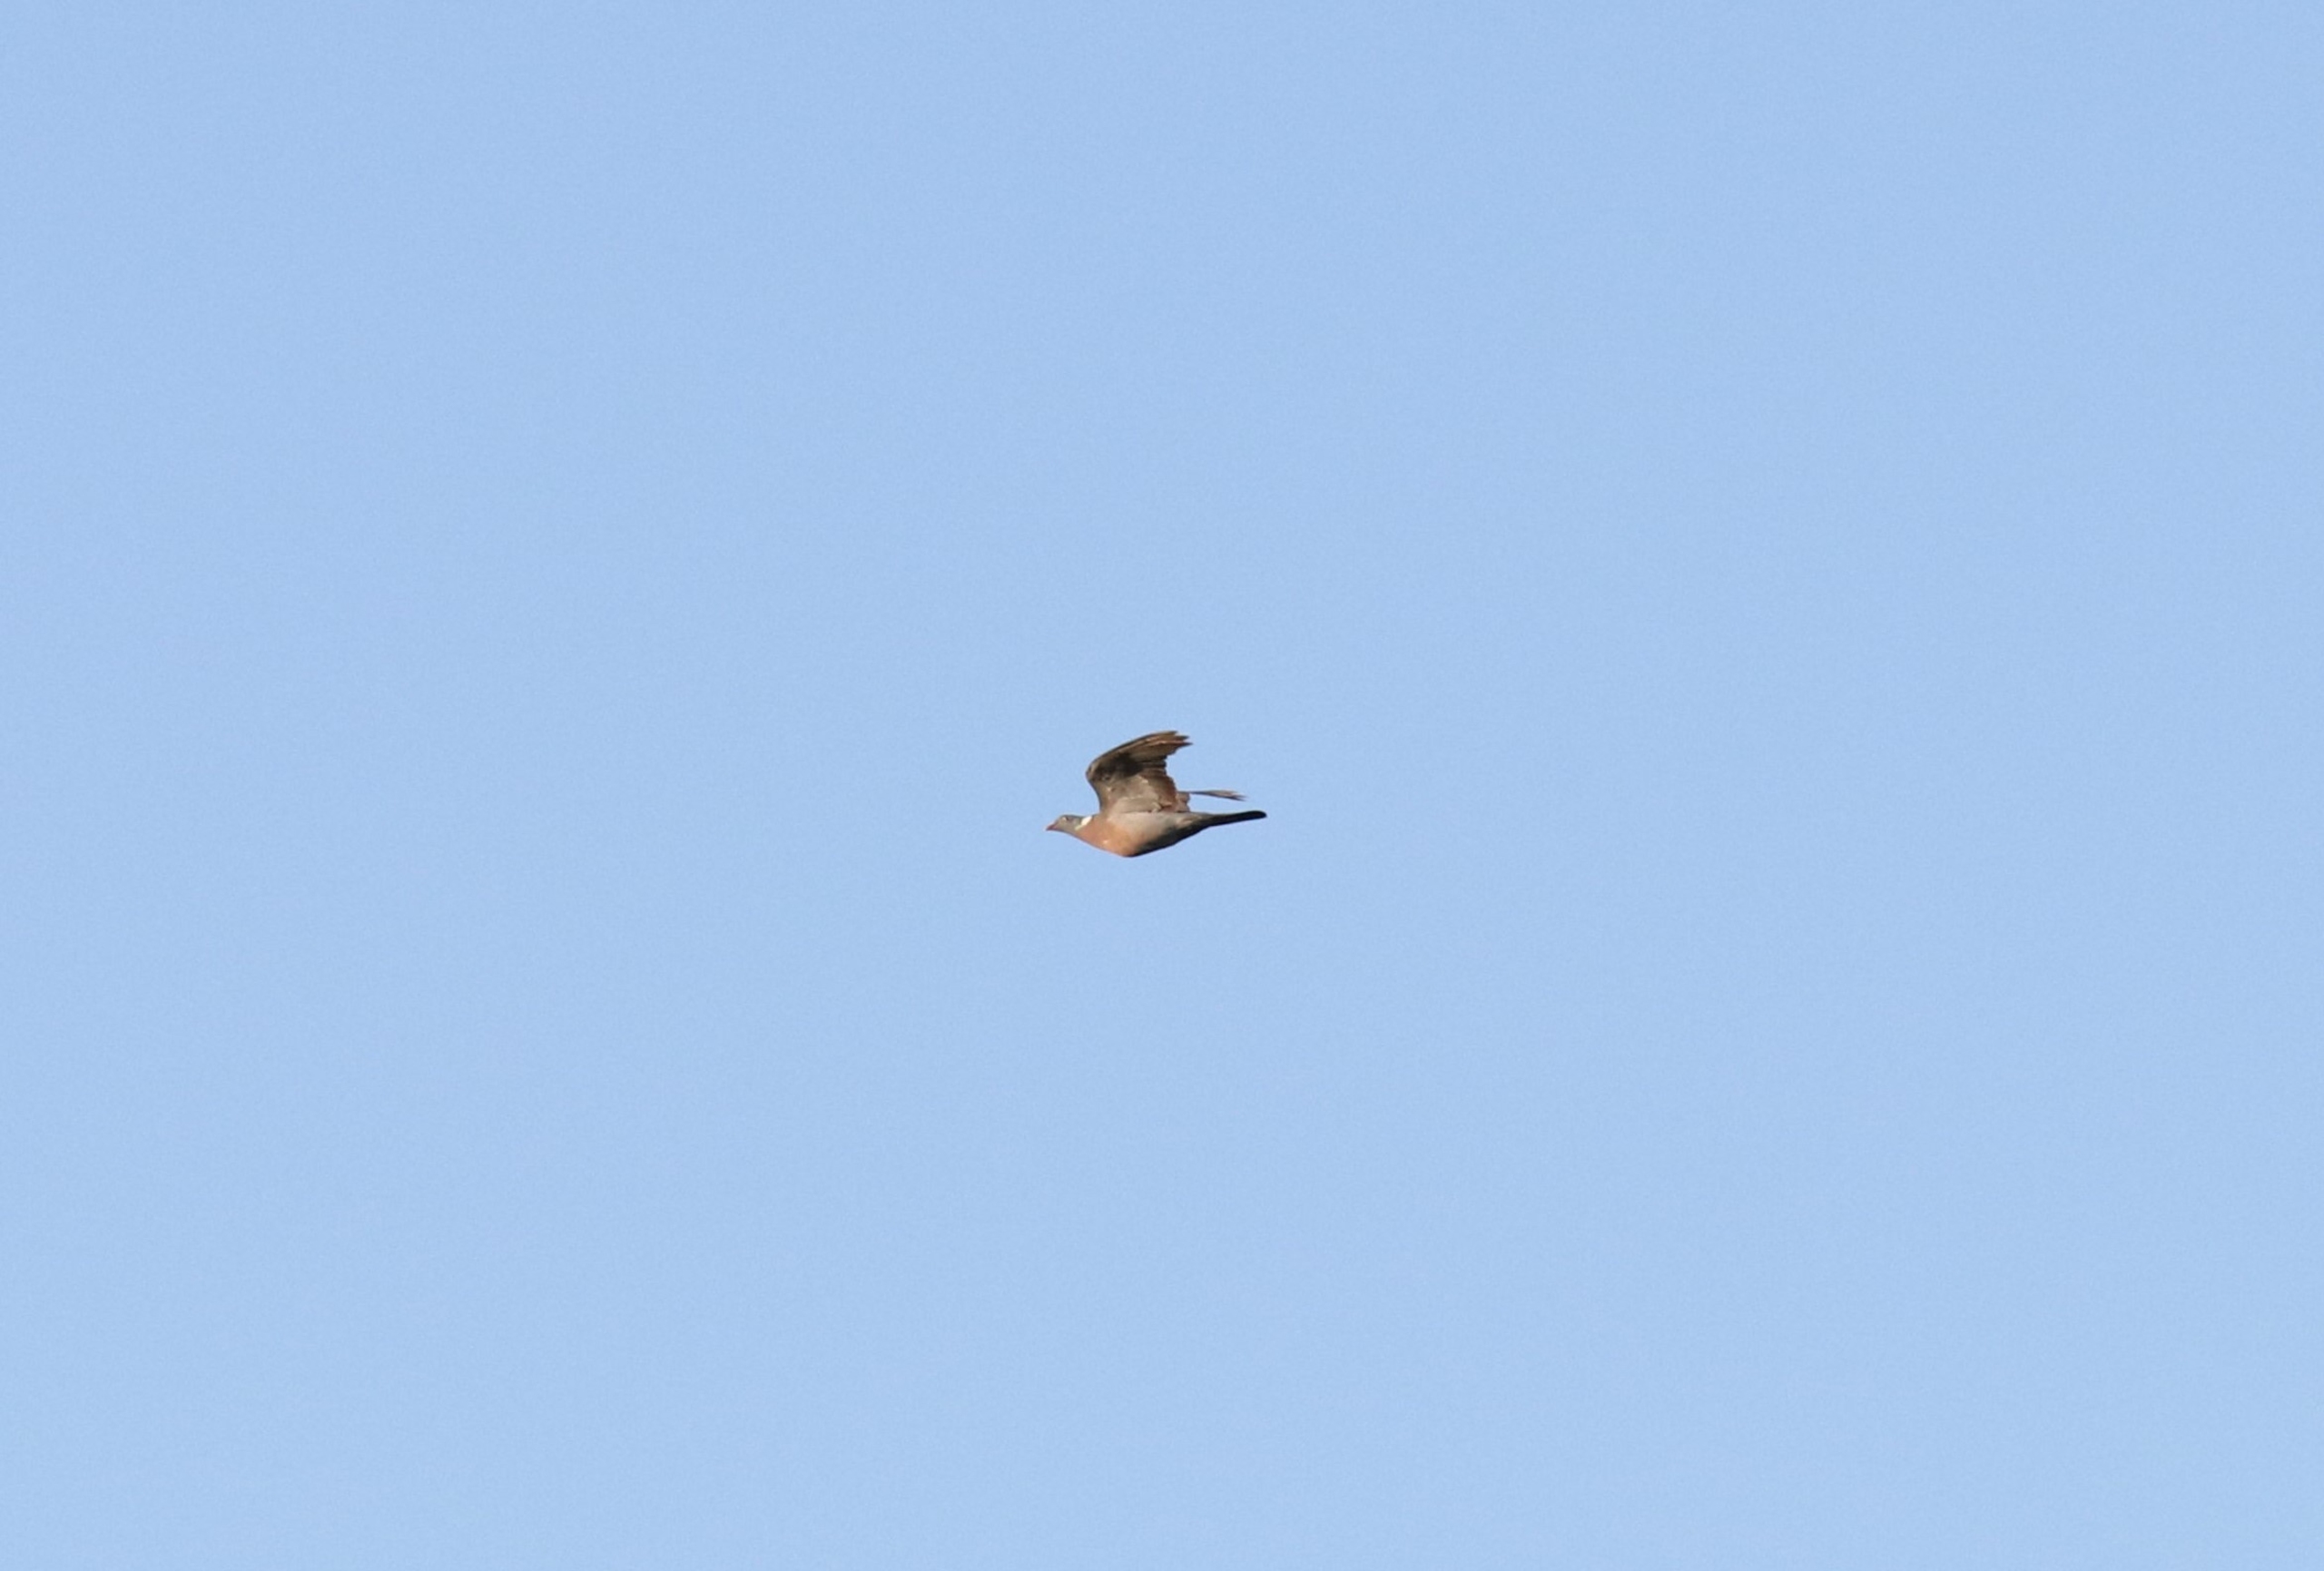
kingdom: Animalia
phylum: Chordata
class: Aves
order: Columbiformes
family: Columbidae
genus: Columba
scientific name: Columba palumbus
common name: Ringdue
